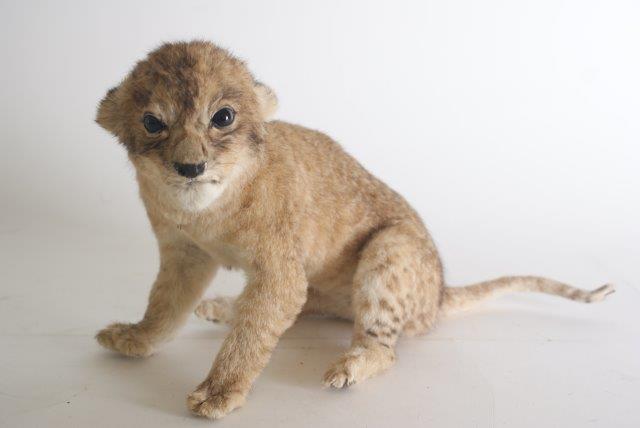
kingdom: Animalia
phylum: Chordata
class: Mammalia
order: Carnivora
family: Felidae
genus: Panthera
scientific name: Panthera leo
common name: Lion
